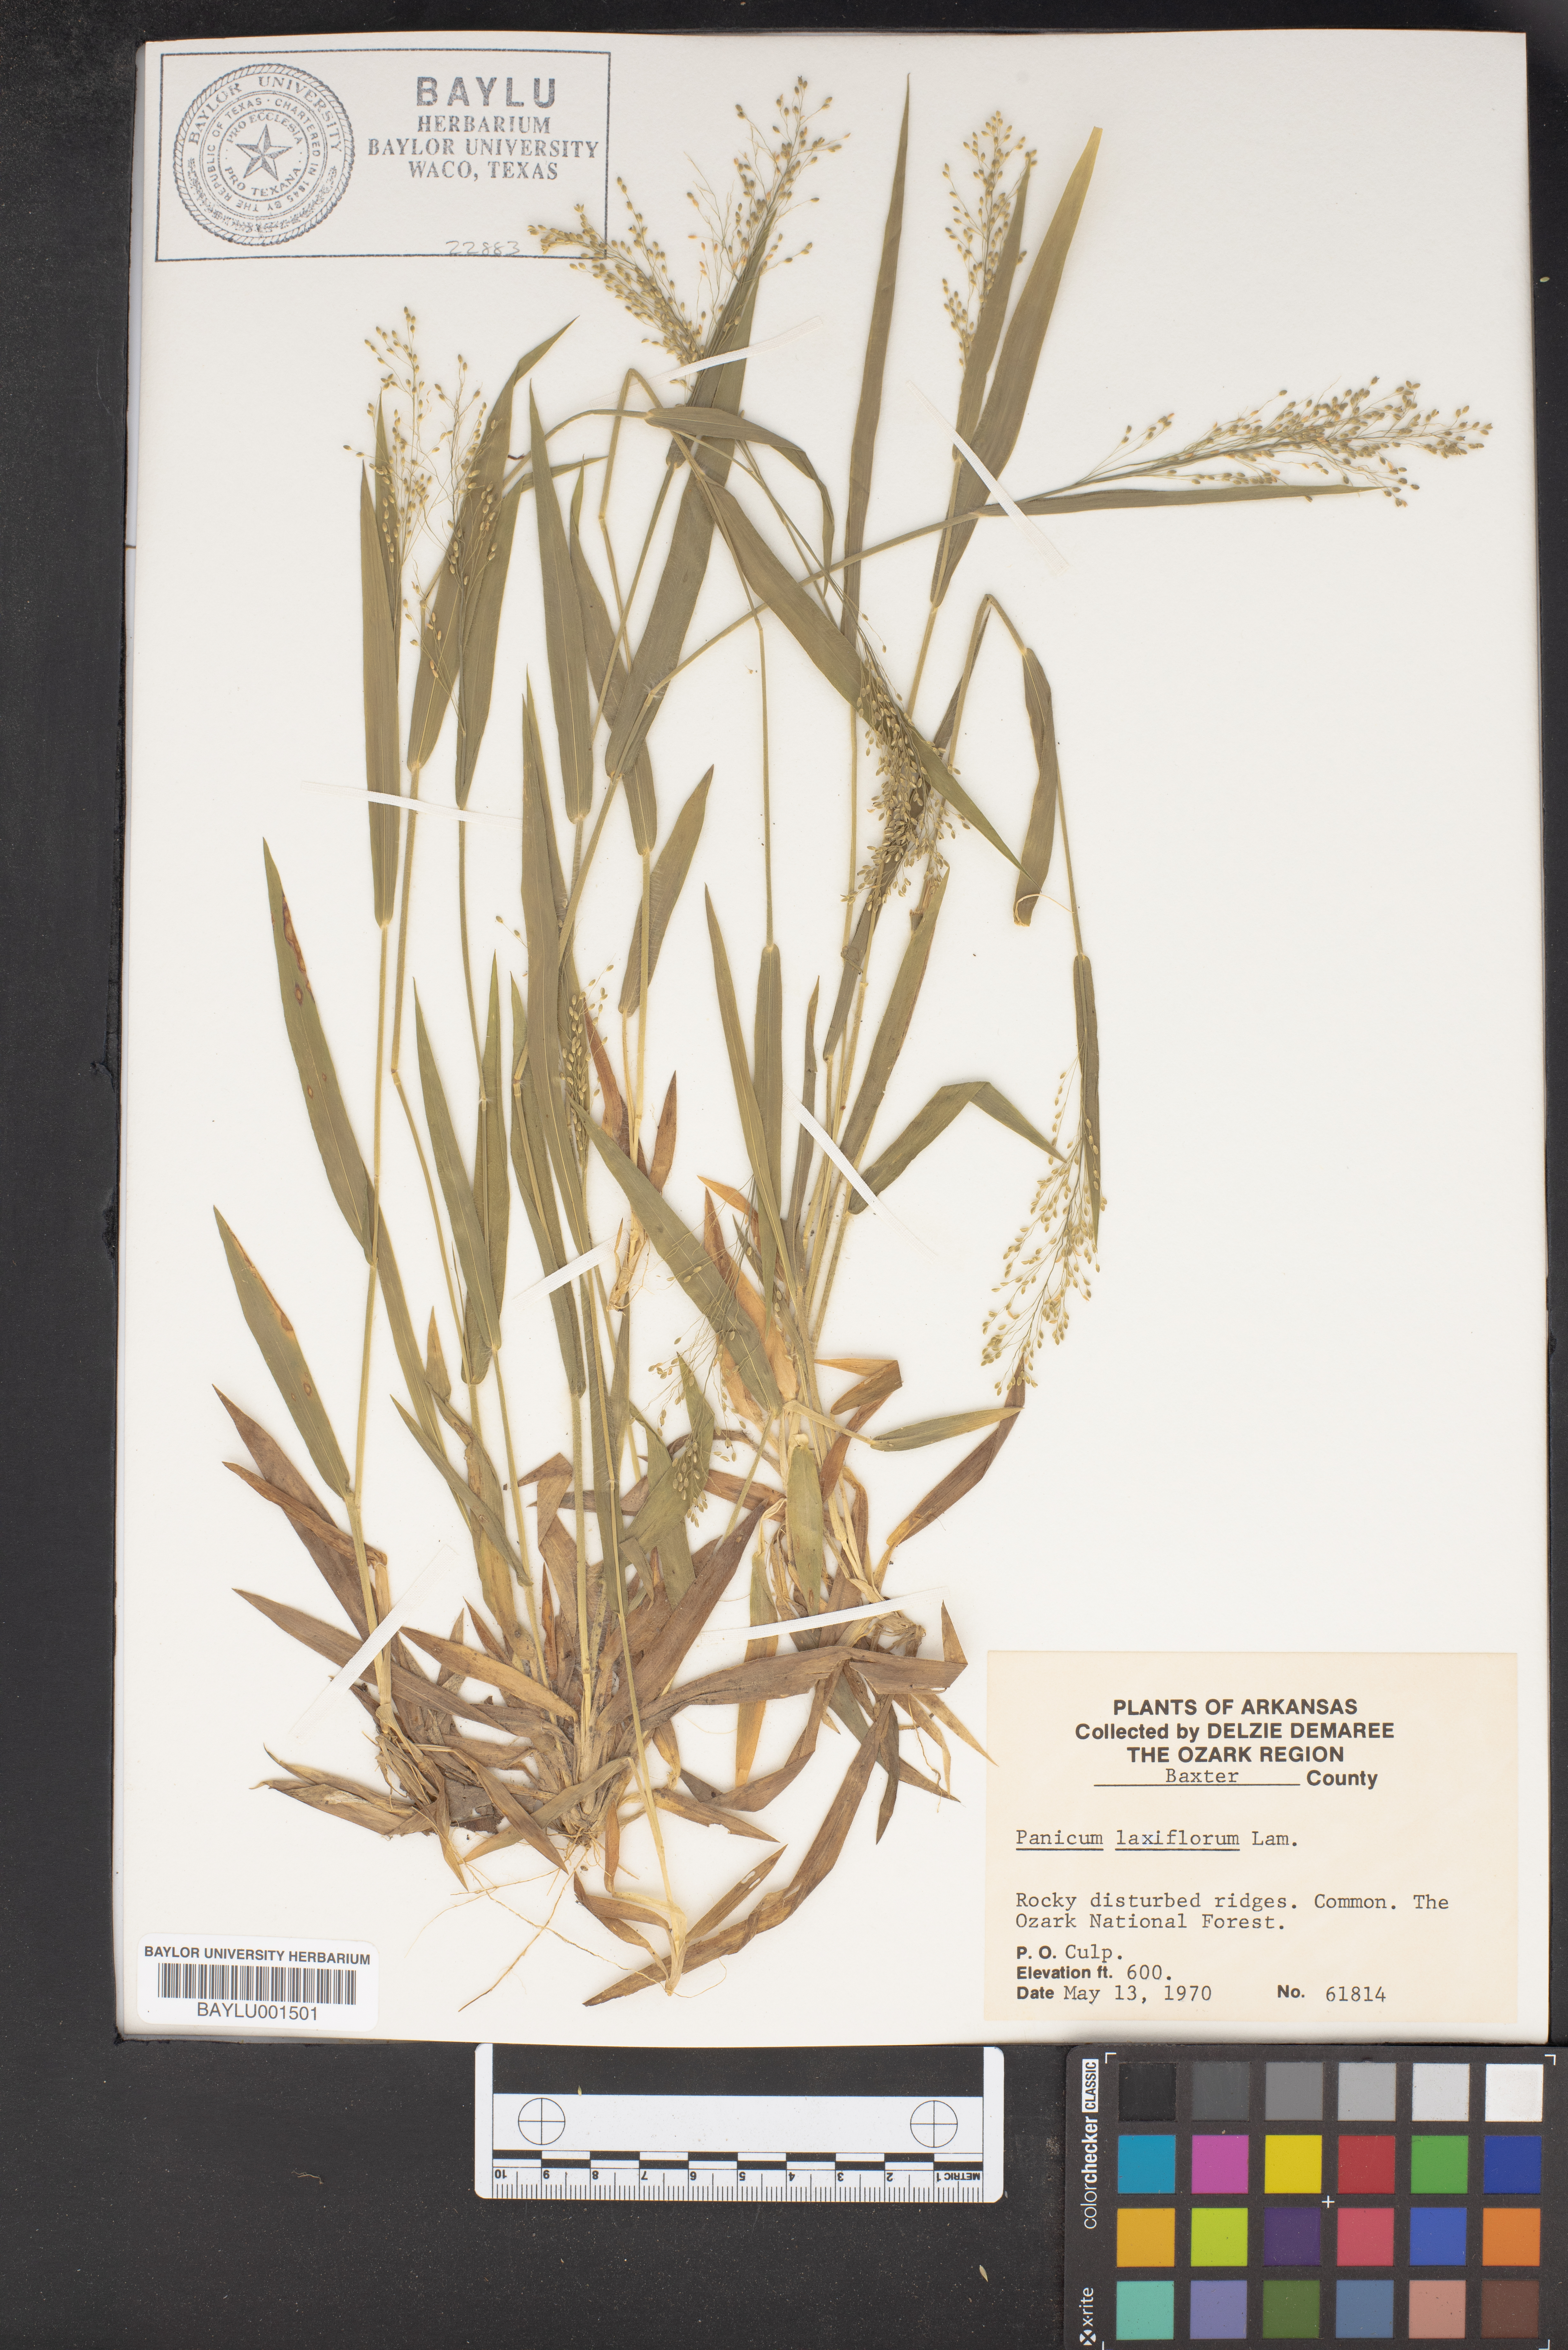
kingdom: Plantae
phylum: Tracheophyta
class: Liliopsida
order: Poales
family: Poaceae
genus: Dichanthelium
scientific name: Dichanthelium laxiflorum
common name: Soft-tuft panic grass
